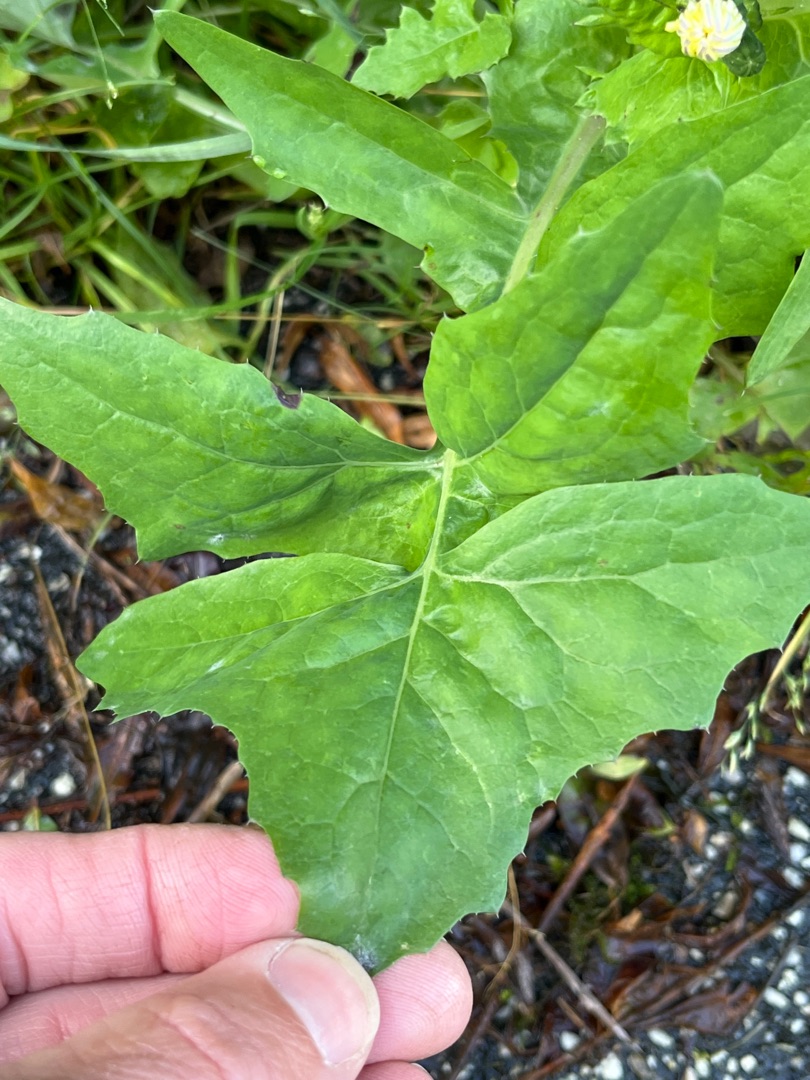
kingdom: Plantae
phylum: Tracheophyta
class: Magnoliopsida
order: Asterales
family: Asteraceae
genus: Sonchus
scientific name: Sonchus oleraceus
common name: Almindelig svinemælk
